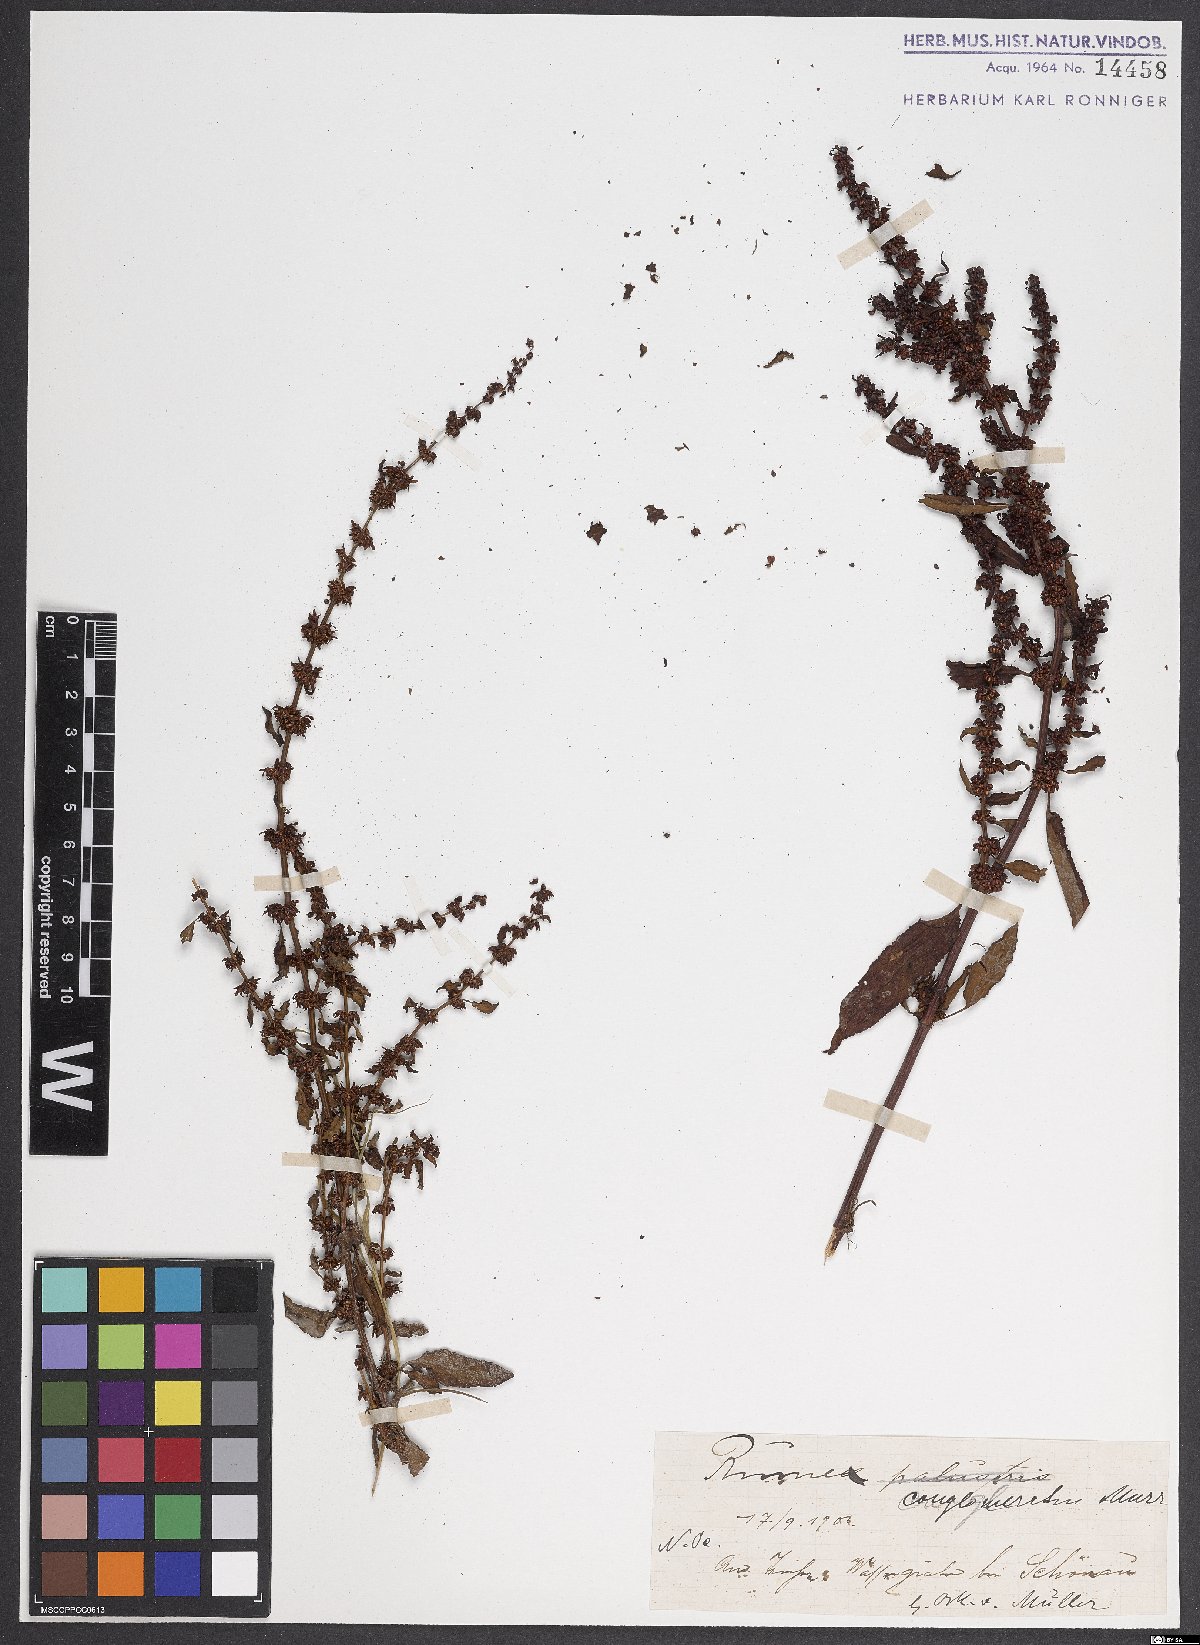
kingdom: Plantae
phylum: Tracheophyta
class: Magnoliopsida
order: Caryophyllales
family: Polygonaceae
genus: Rumex
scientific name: Rumex conglomeratus
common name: Clustered dock
